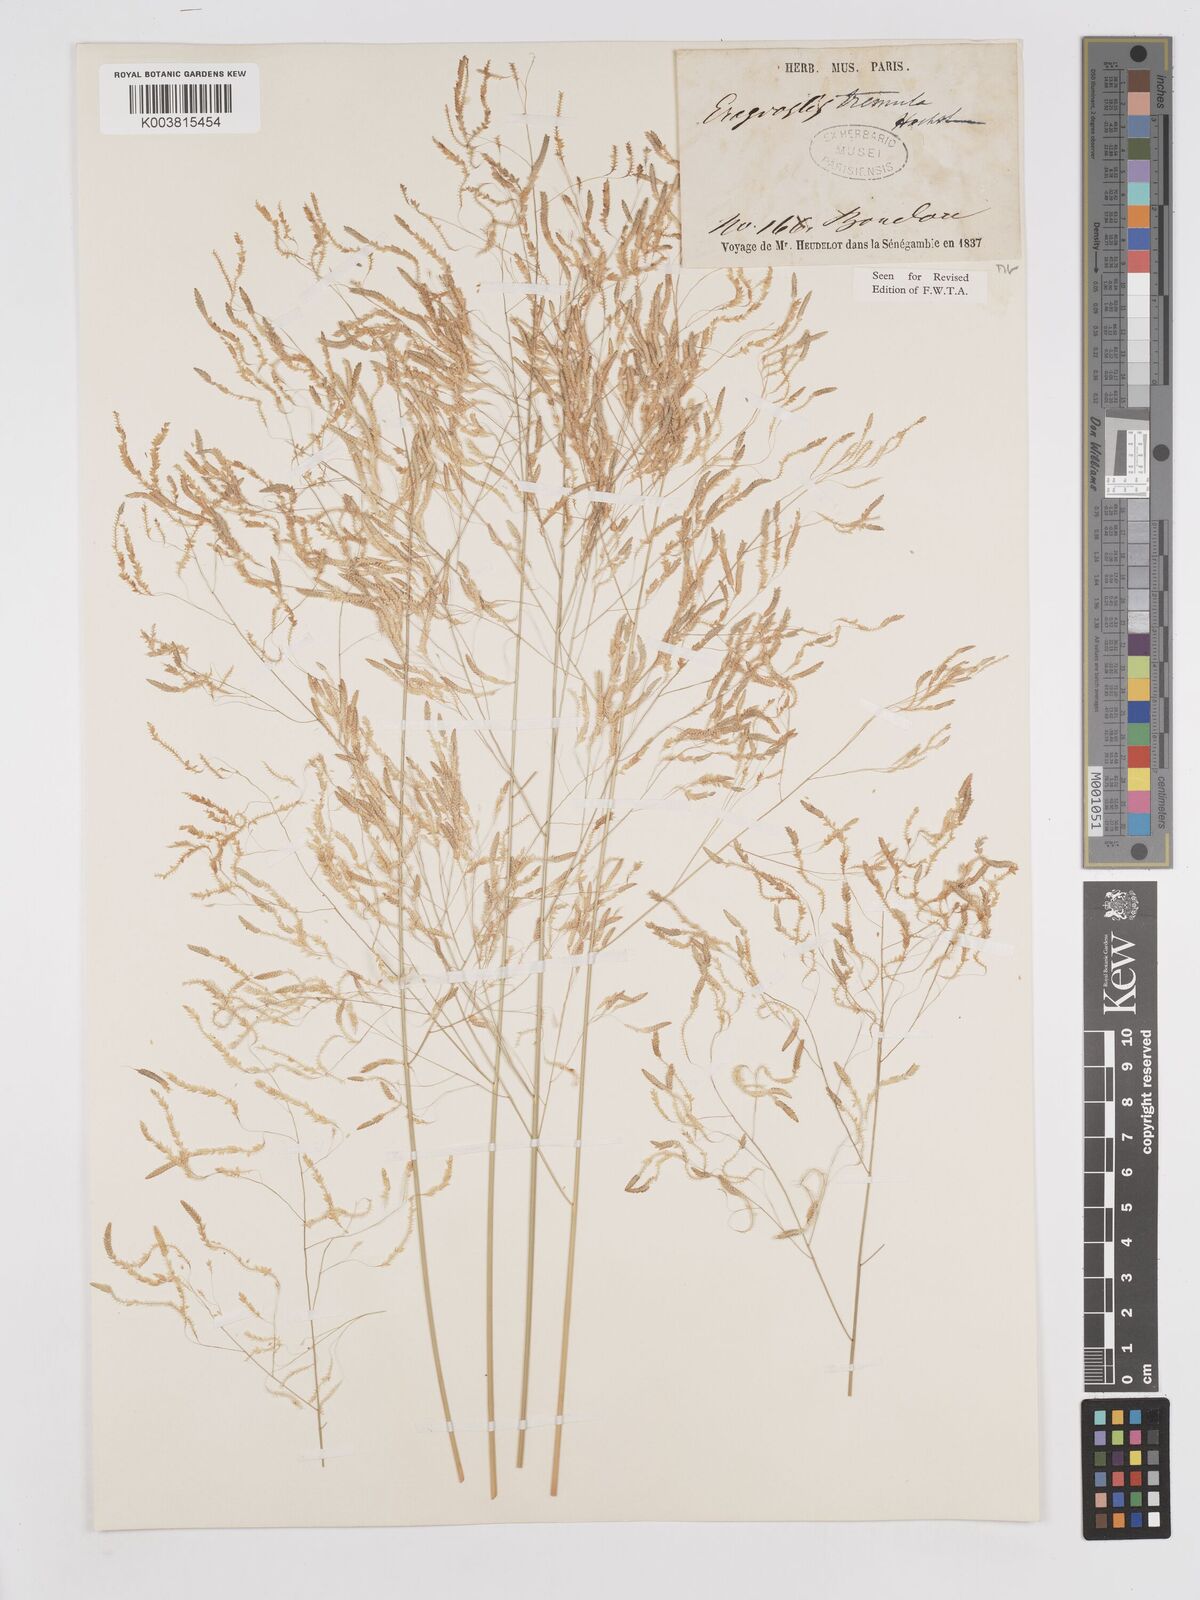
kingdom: Plantae
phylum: Tracheophyta
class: Liliopsida
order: Poales
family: Poaceae
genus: Eragrostis
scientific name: Eragrostis tremula
